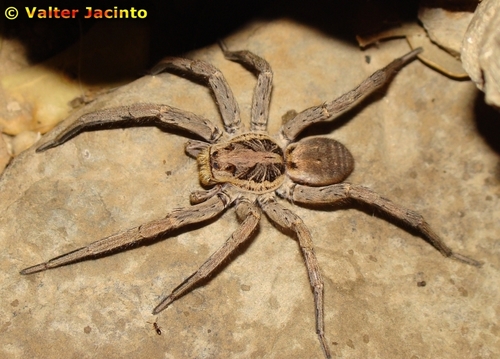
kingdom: Animalia
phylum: Arthropoda
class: Arachnida
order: Araneae
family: Lycosidae
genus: Hogna
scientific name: Hogna radiata
